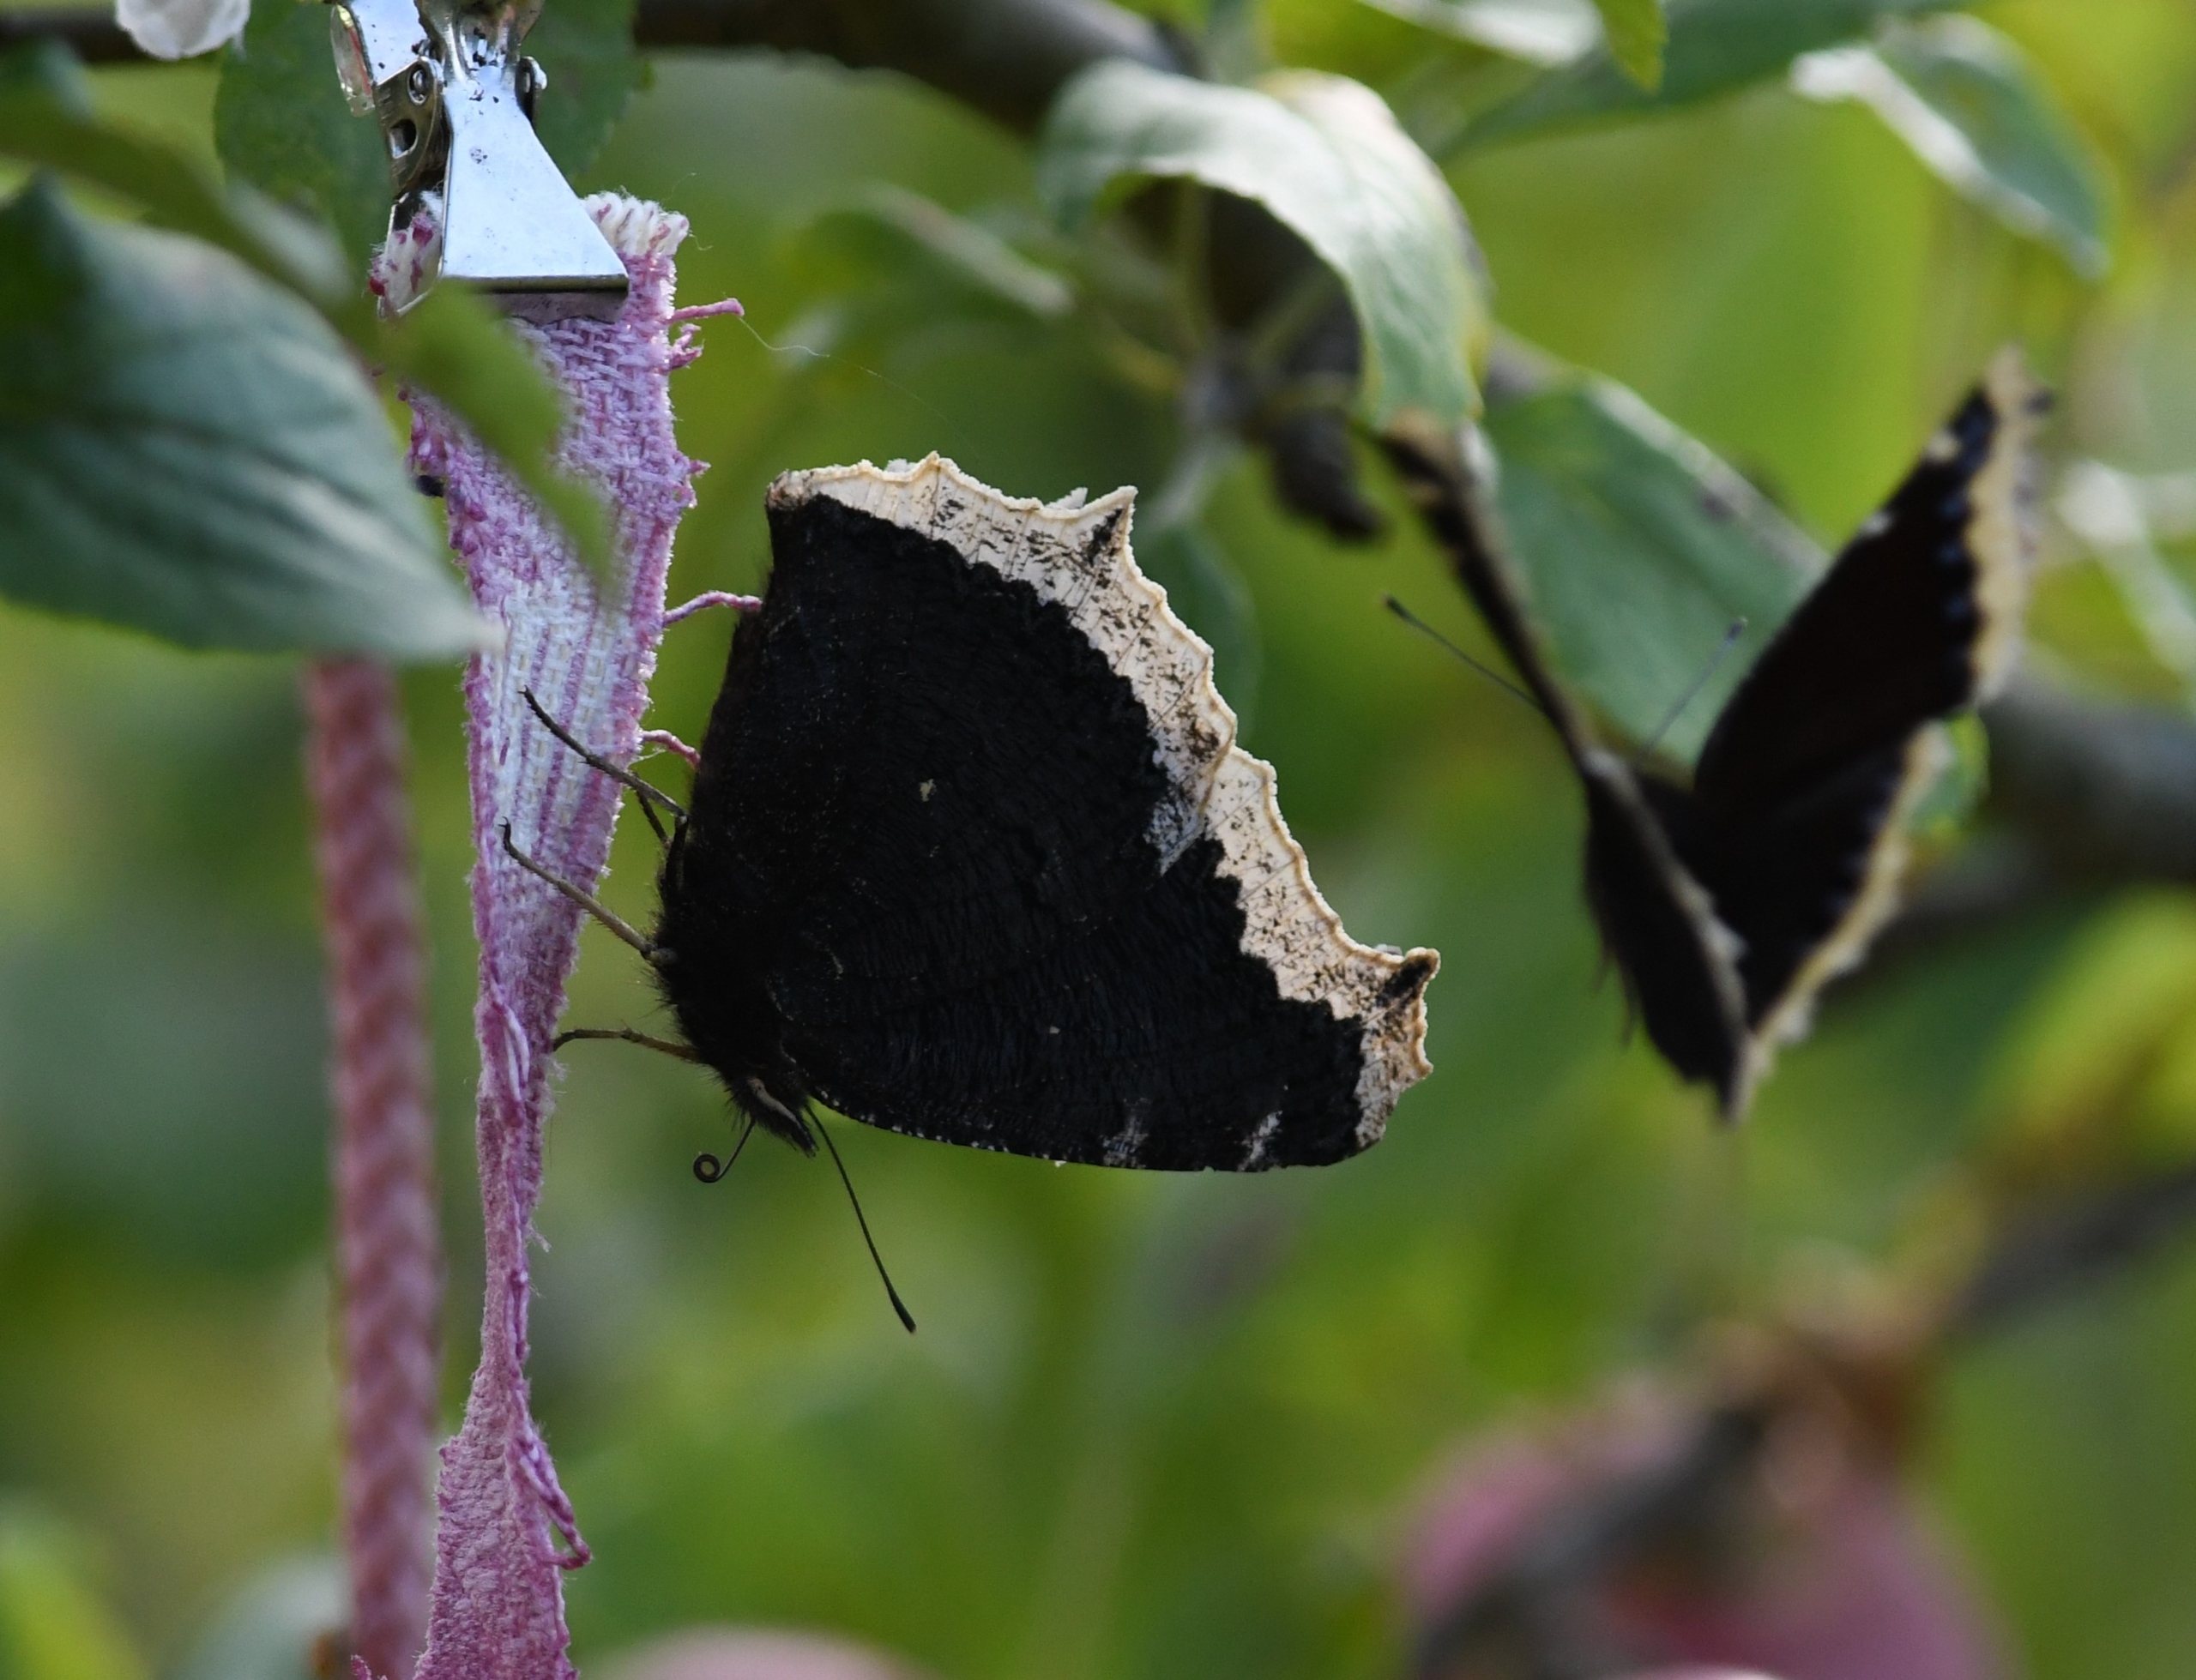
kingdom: Animalia
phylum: Arthropoda
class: Insecta
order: Lepidoptera
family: Nymphalidae
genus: Nymphalis
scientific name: Nymphalis antiopa
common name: Sørgekåbe
